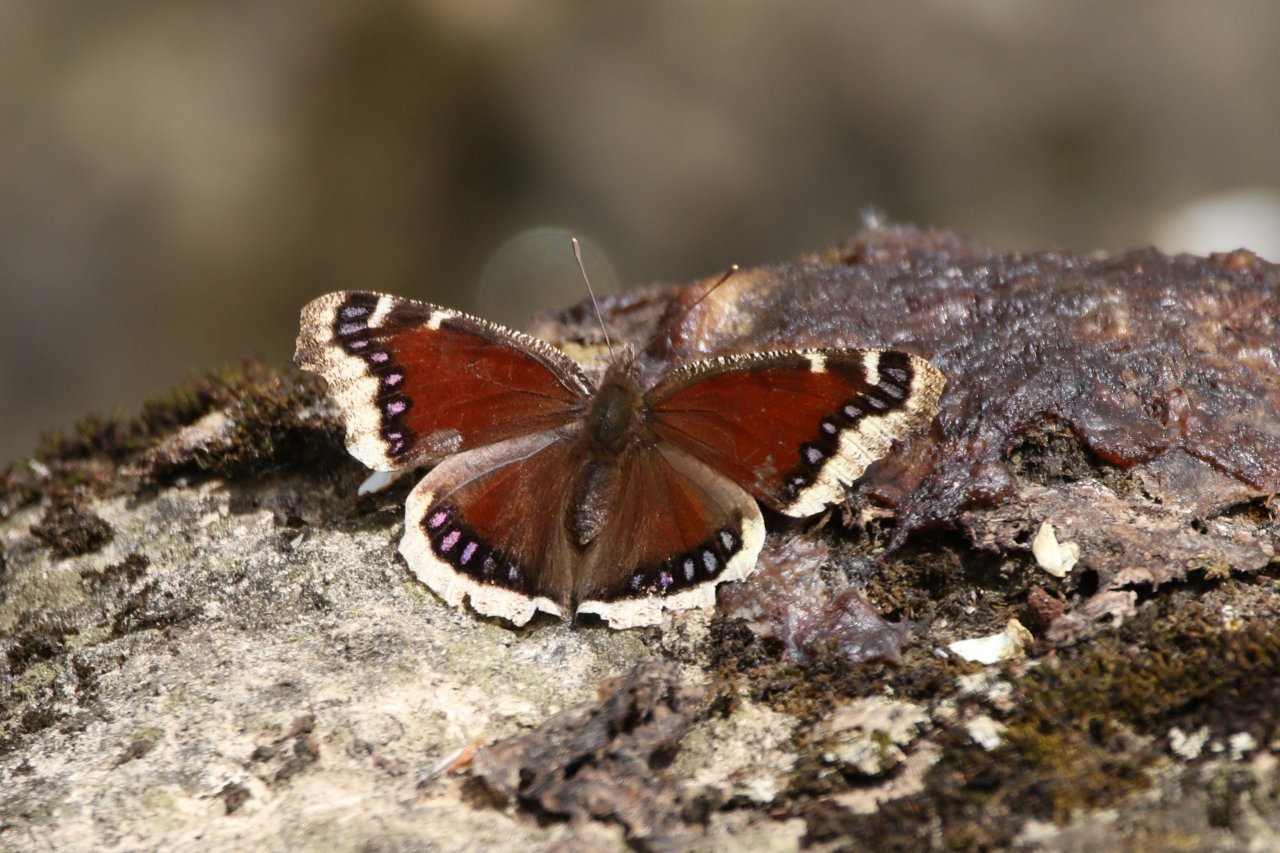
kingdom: Animalia
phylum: Arthropoda
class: Insecta
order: Lepidoptera
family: Nymphalidae
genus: Nymphalis
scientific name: Nymphalis antiopa
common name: Mourning Cloak
